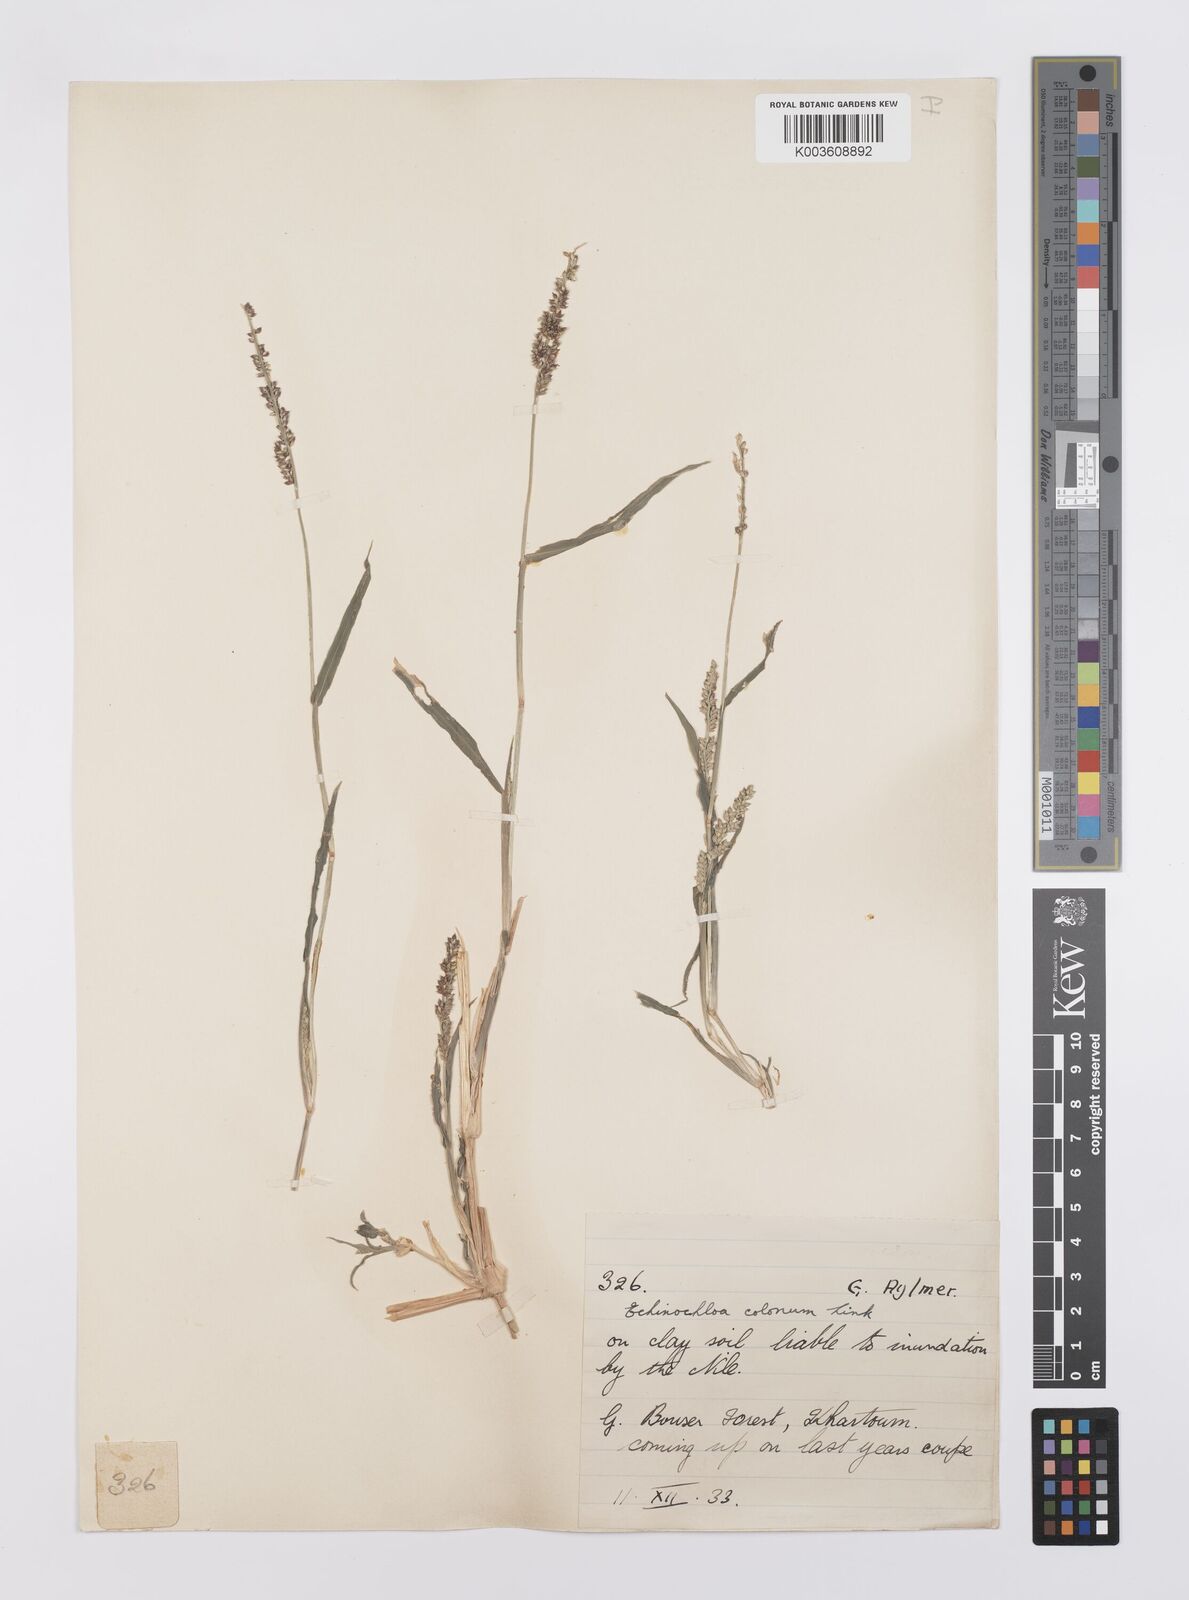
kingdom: Plantae
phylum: Tracheophyta
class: Liliopsida
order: Poales
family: Poaceae
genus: Echinochloa
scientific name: Echinochloa colonum
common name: Jungle rice
